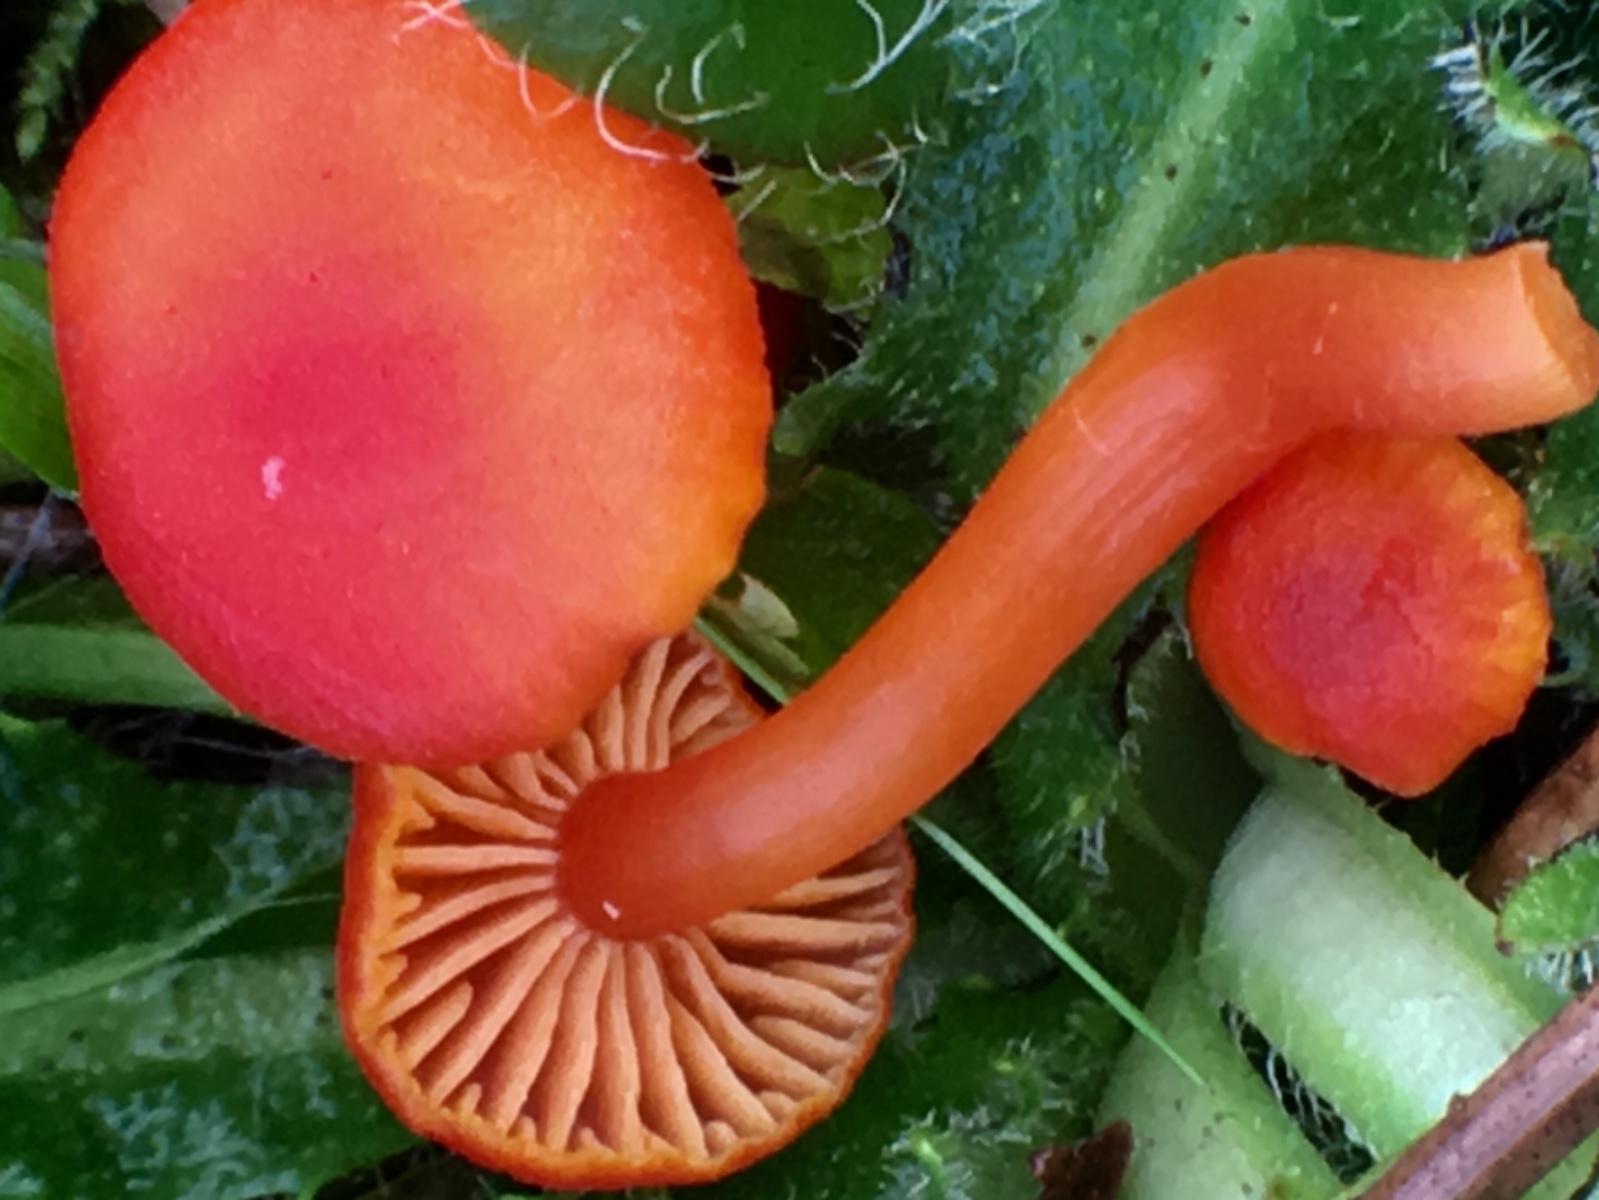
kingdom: Fungi
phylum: Basidiomycota
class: Agaricomycetes
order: Agaricales
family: Hygrophoraceae
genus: Hygrocybe
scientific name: Hygrocybe miniata
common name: mønje-vokshat
